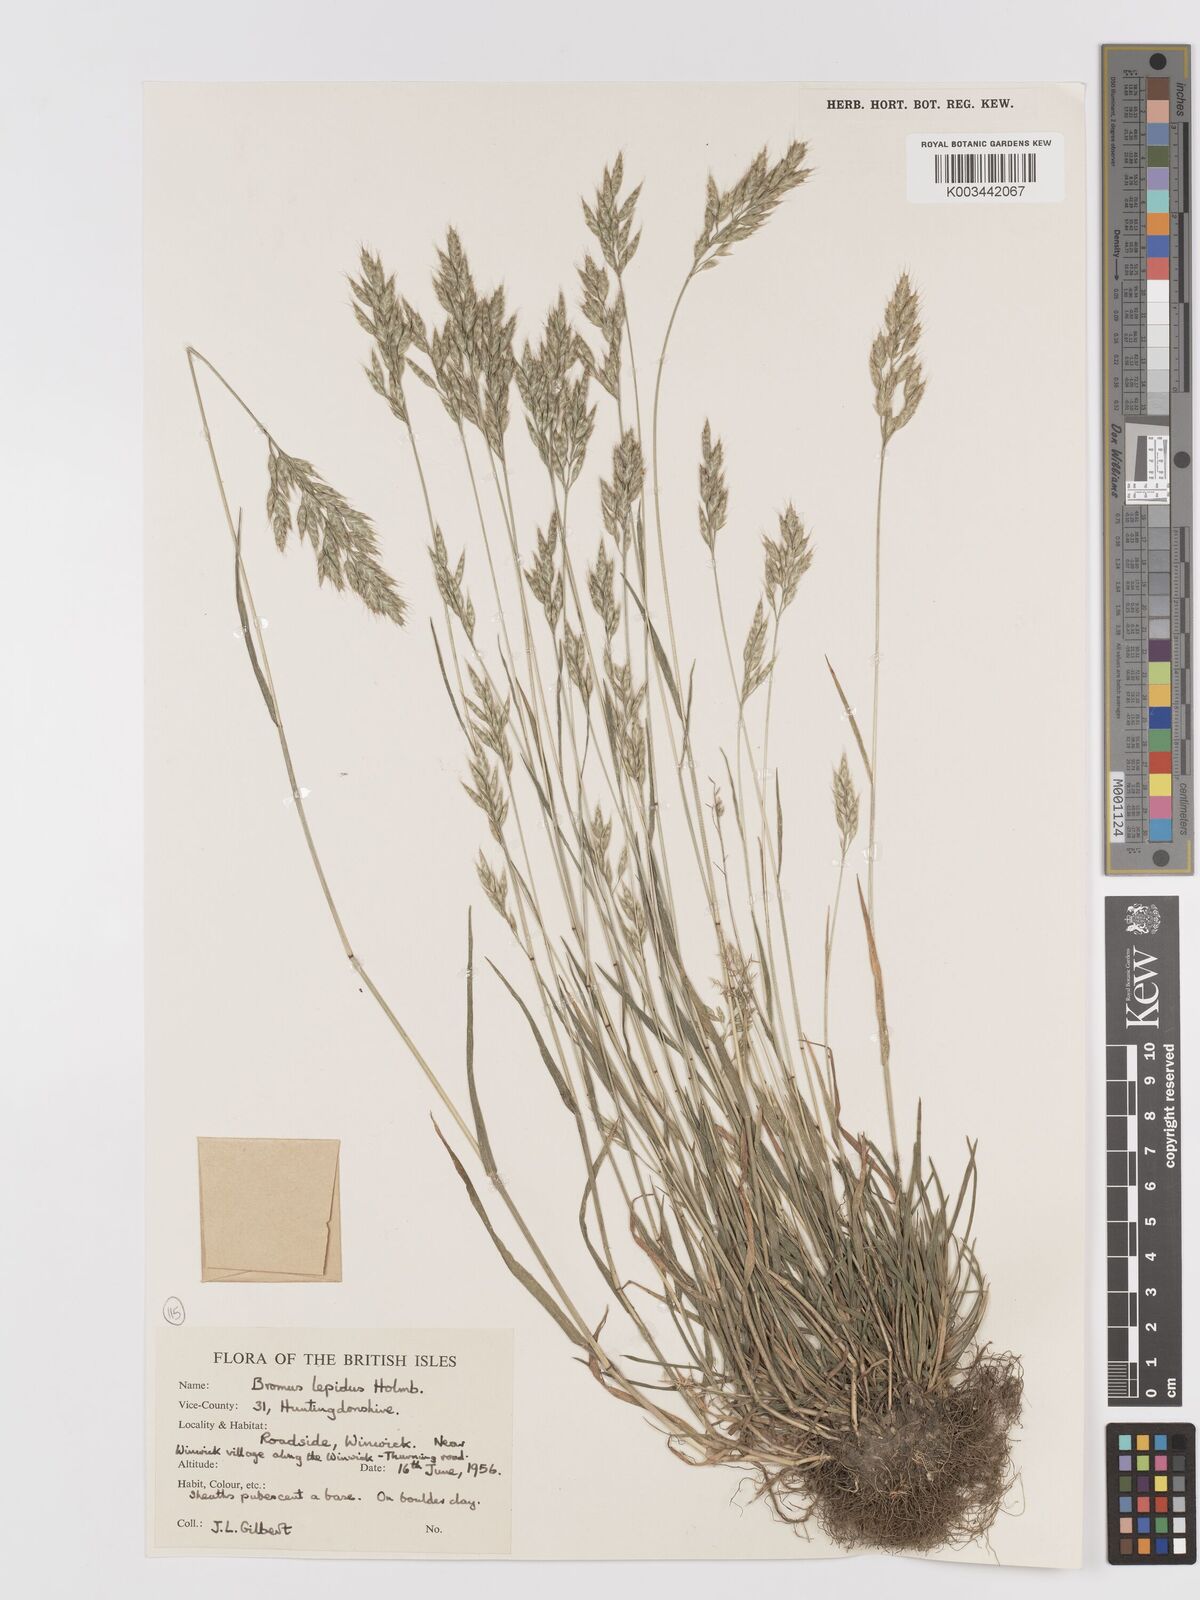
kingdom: Plantae
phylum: Tracheophyta
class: Liliopsida
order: Poales
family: Poaceae
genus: Bromus
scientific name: Bromus lepidus
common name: Slender soft-brome
